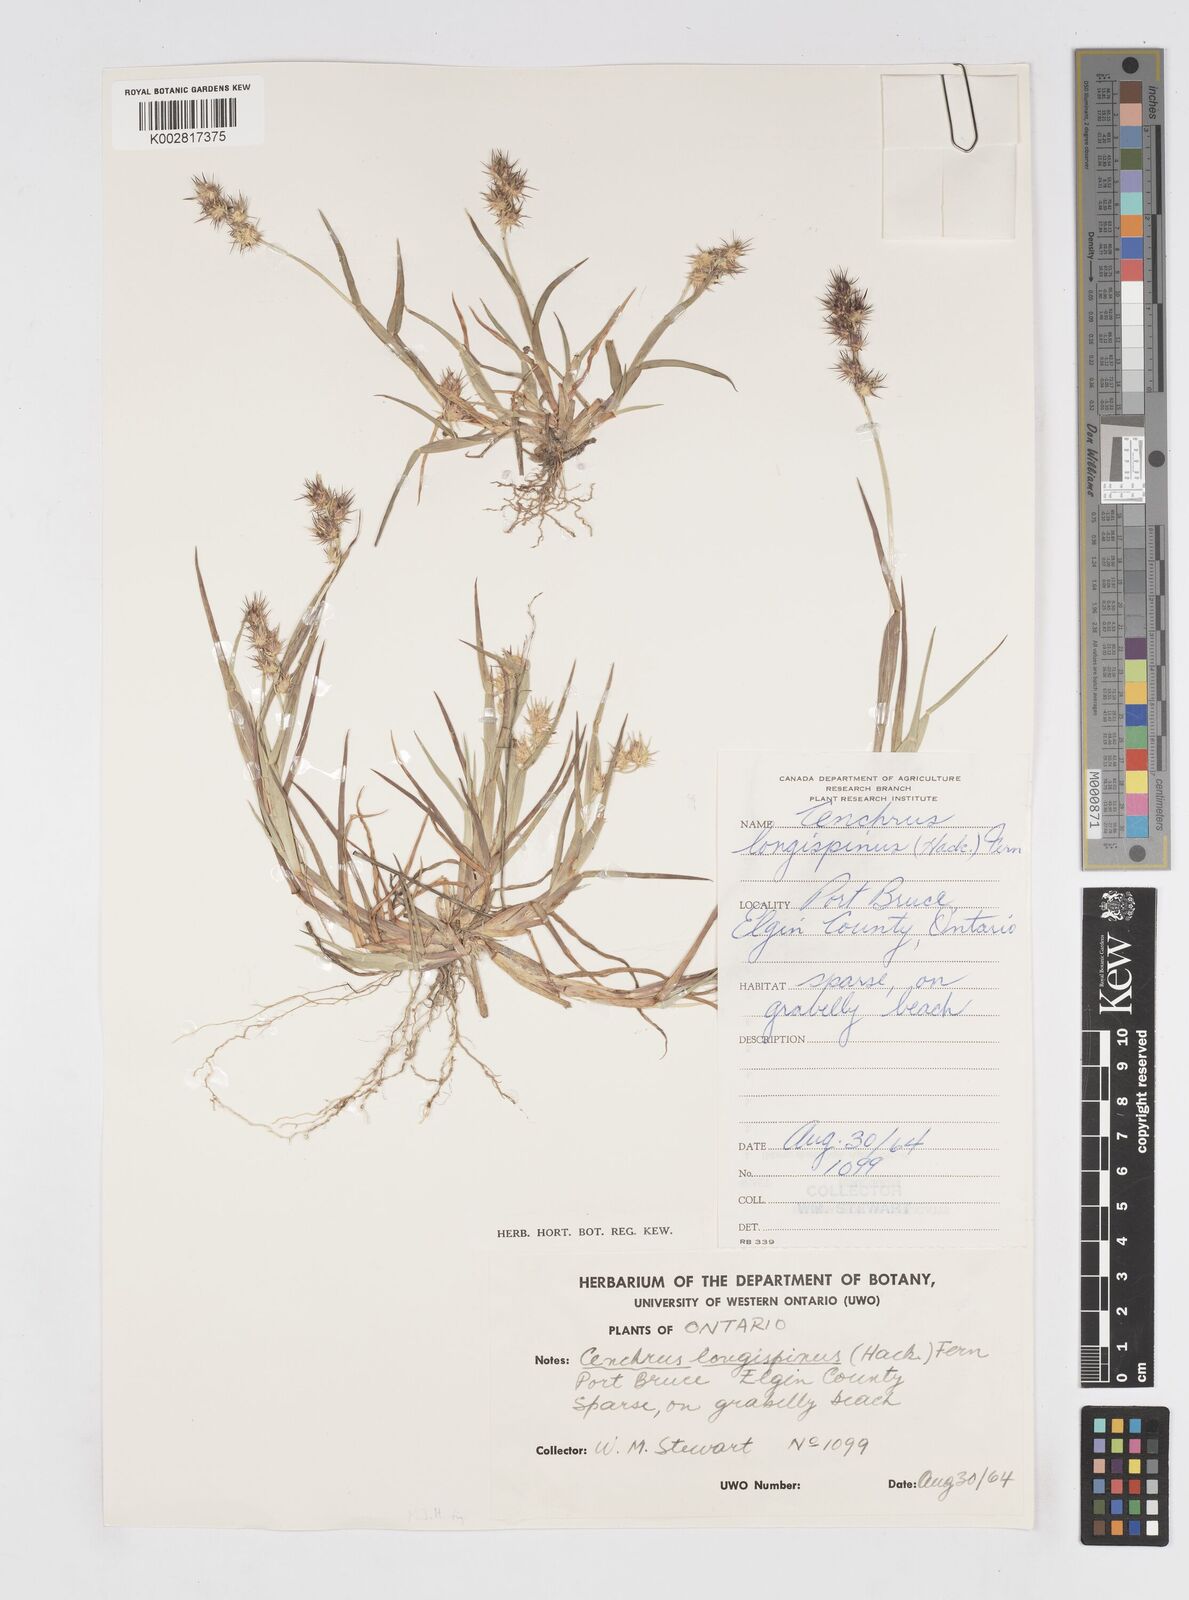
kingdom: Plantae
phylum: Tracheophyta
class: Liliopsida
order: Poales
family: Poaceae
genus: Cenchrus
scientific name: Cenchrus longispinus
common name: Mat sandbur
